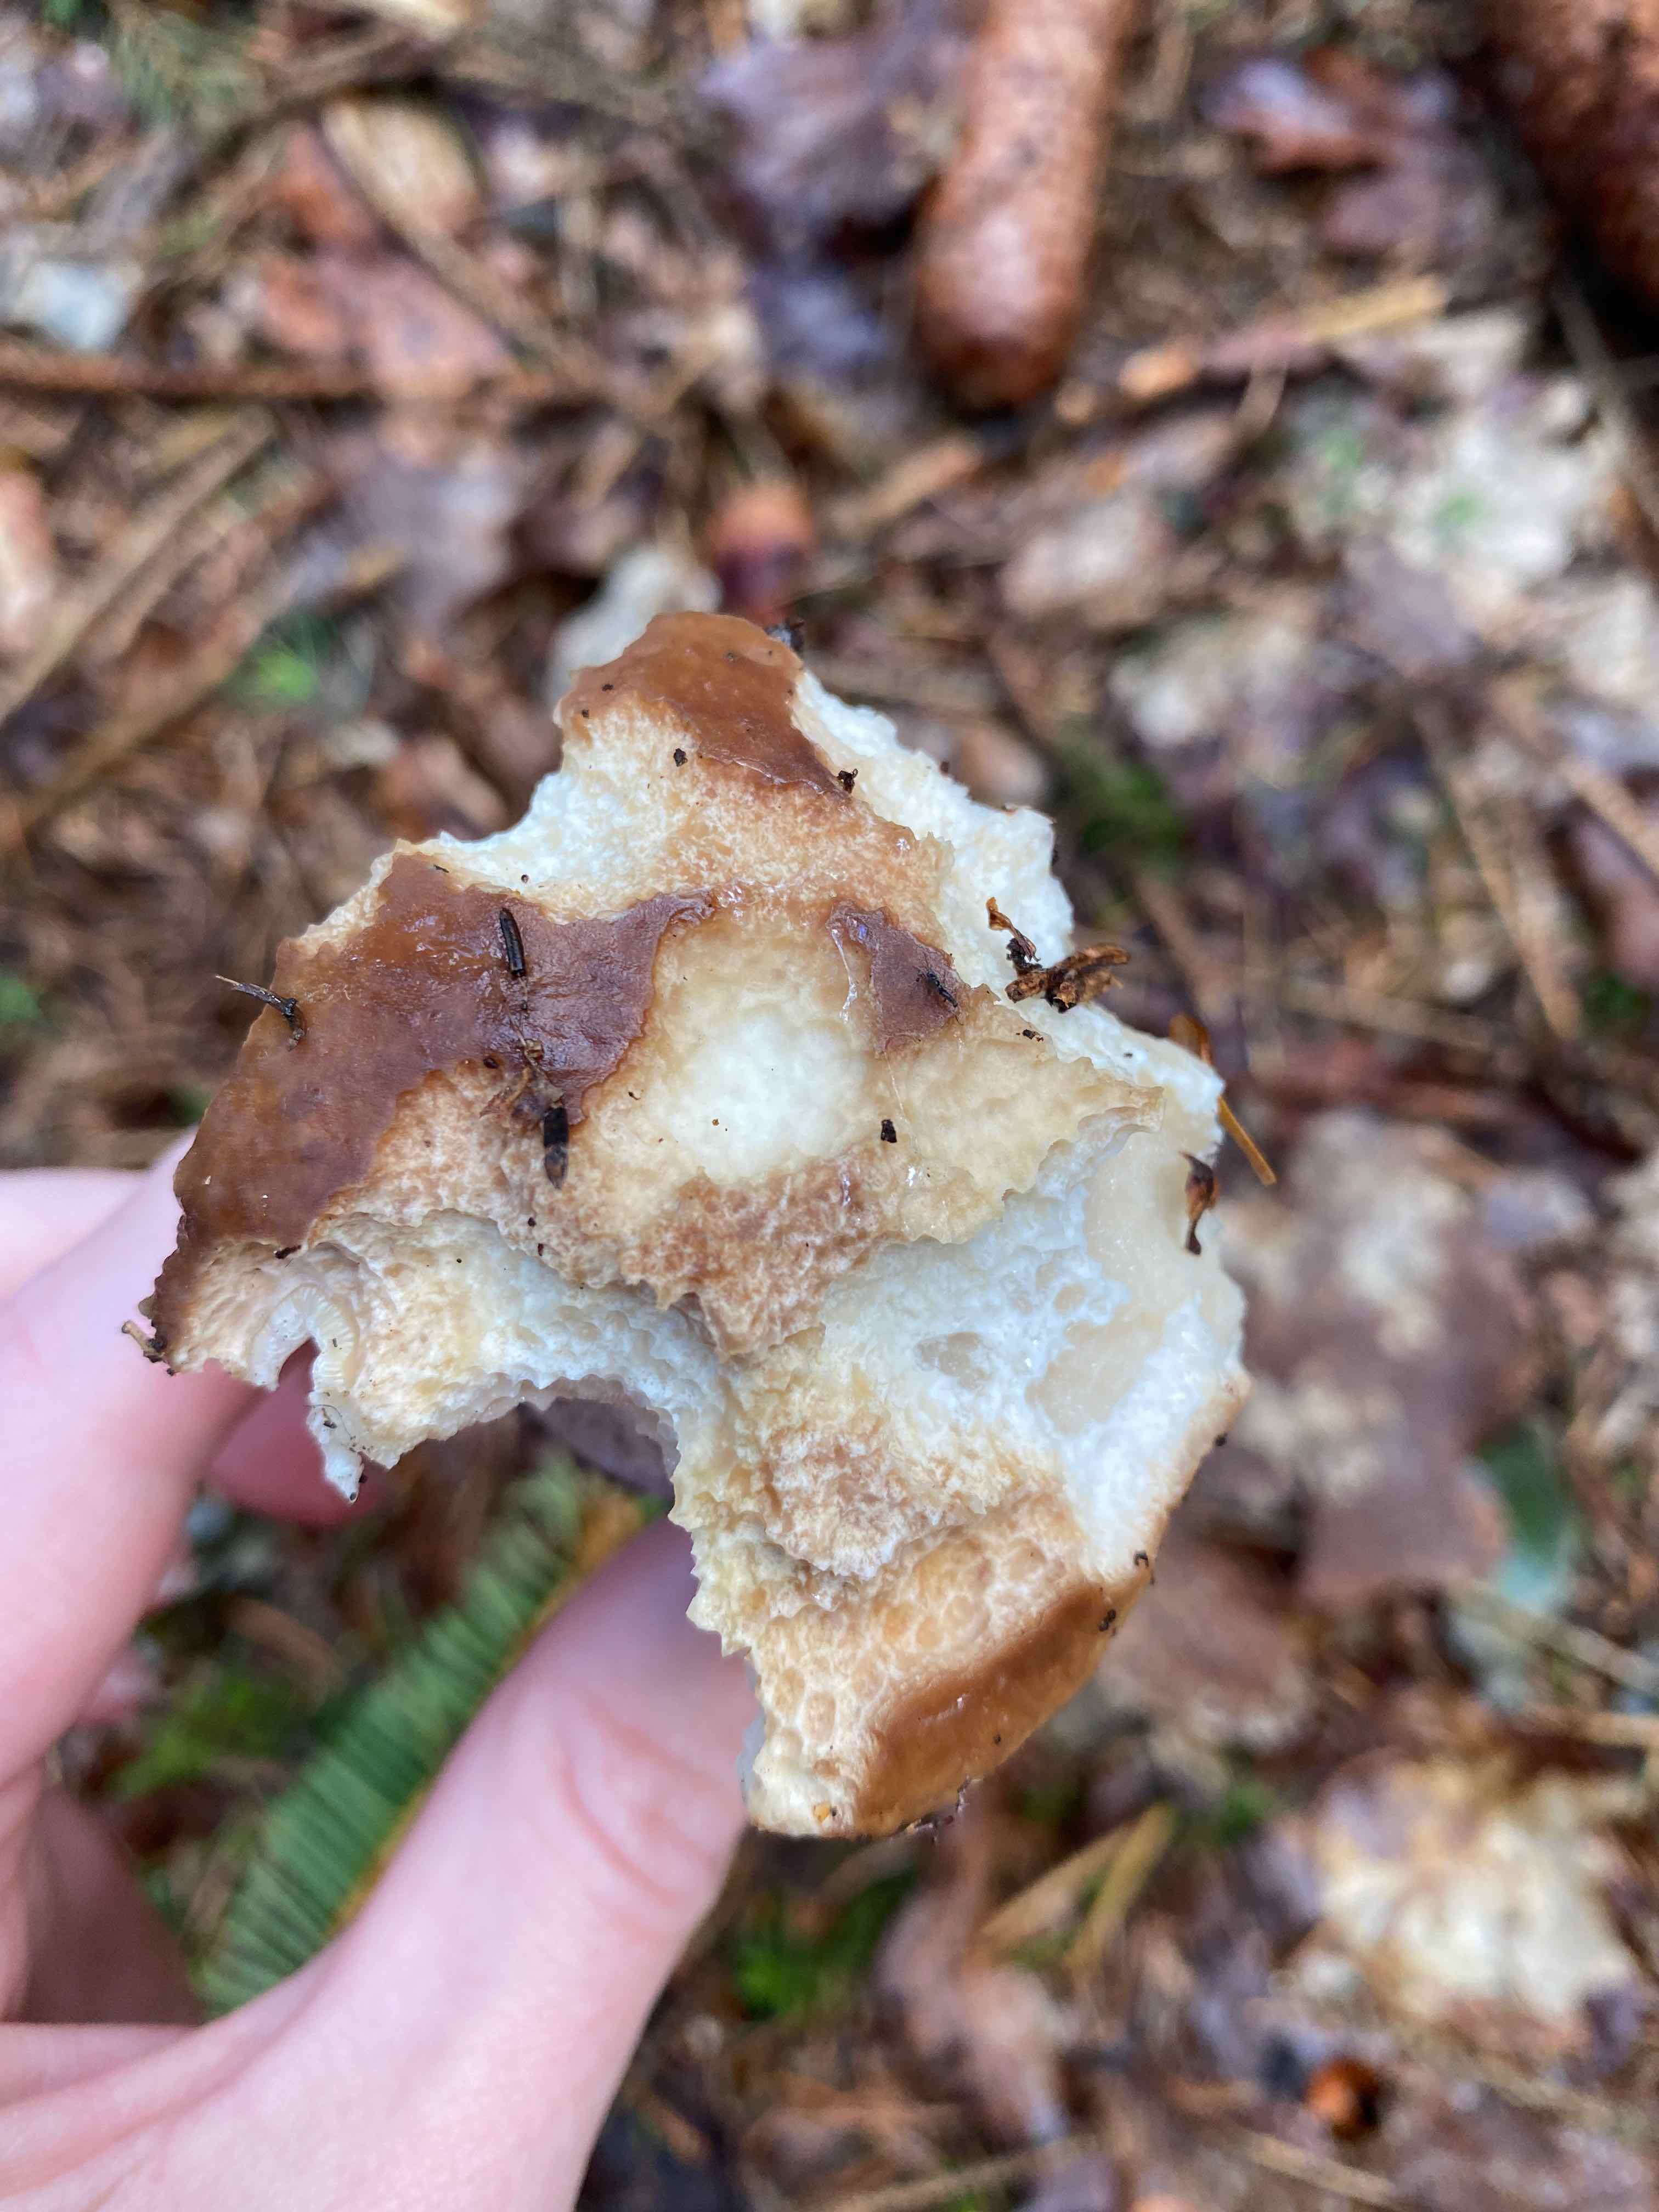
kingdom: Fungi
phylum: Basidiomycota
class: Agaricomycetes
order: Boletales
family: Boletaceae
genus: Boletus
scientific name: Boletus edulis
